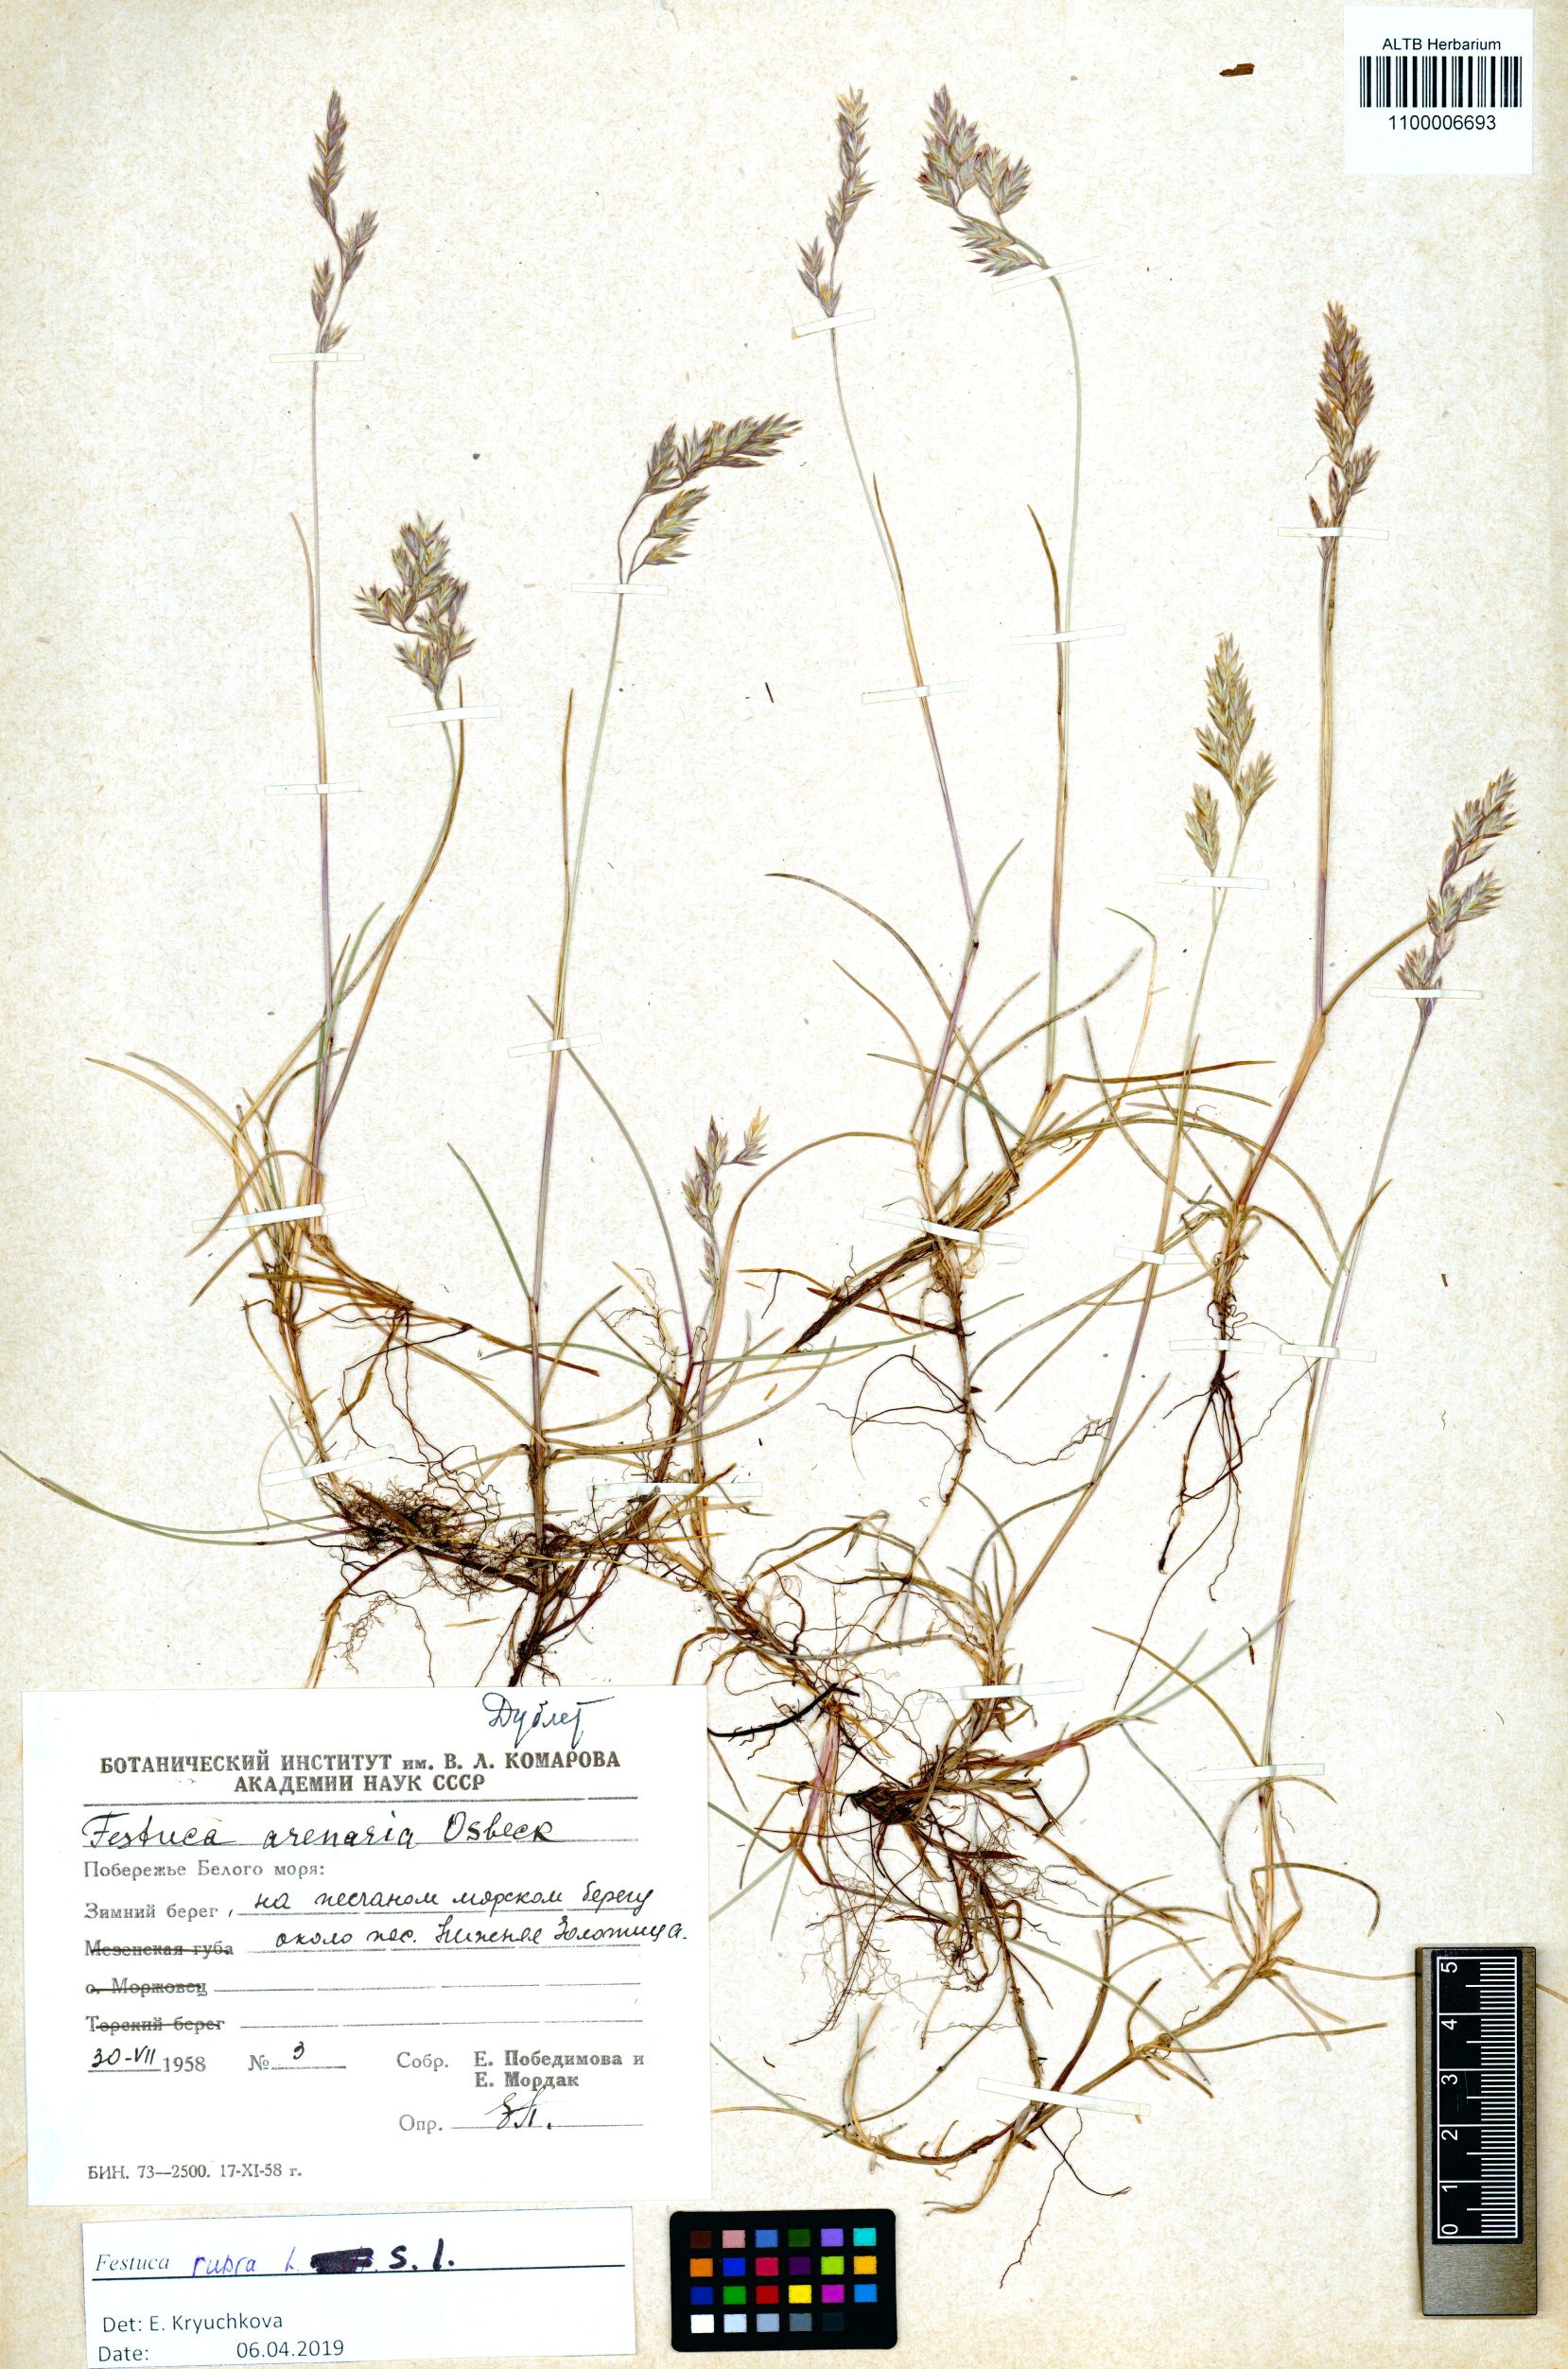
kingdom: Plantae
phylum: Tracheophyta
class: Liliopsida
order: Poales
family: Poaceae
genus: Festuca
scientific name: Festuca rubra
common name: Red fescue
